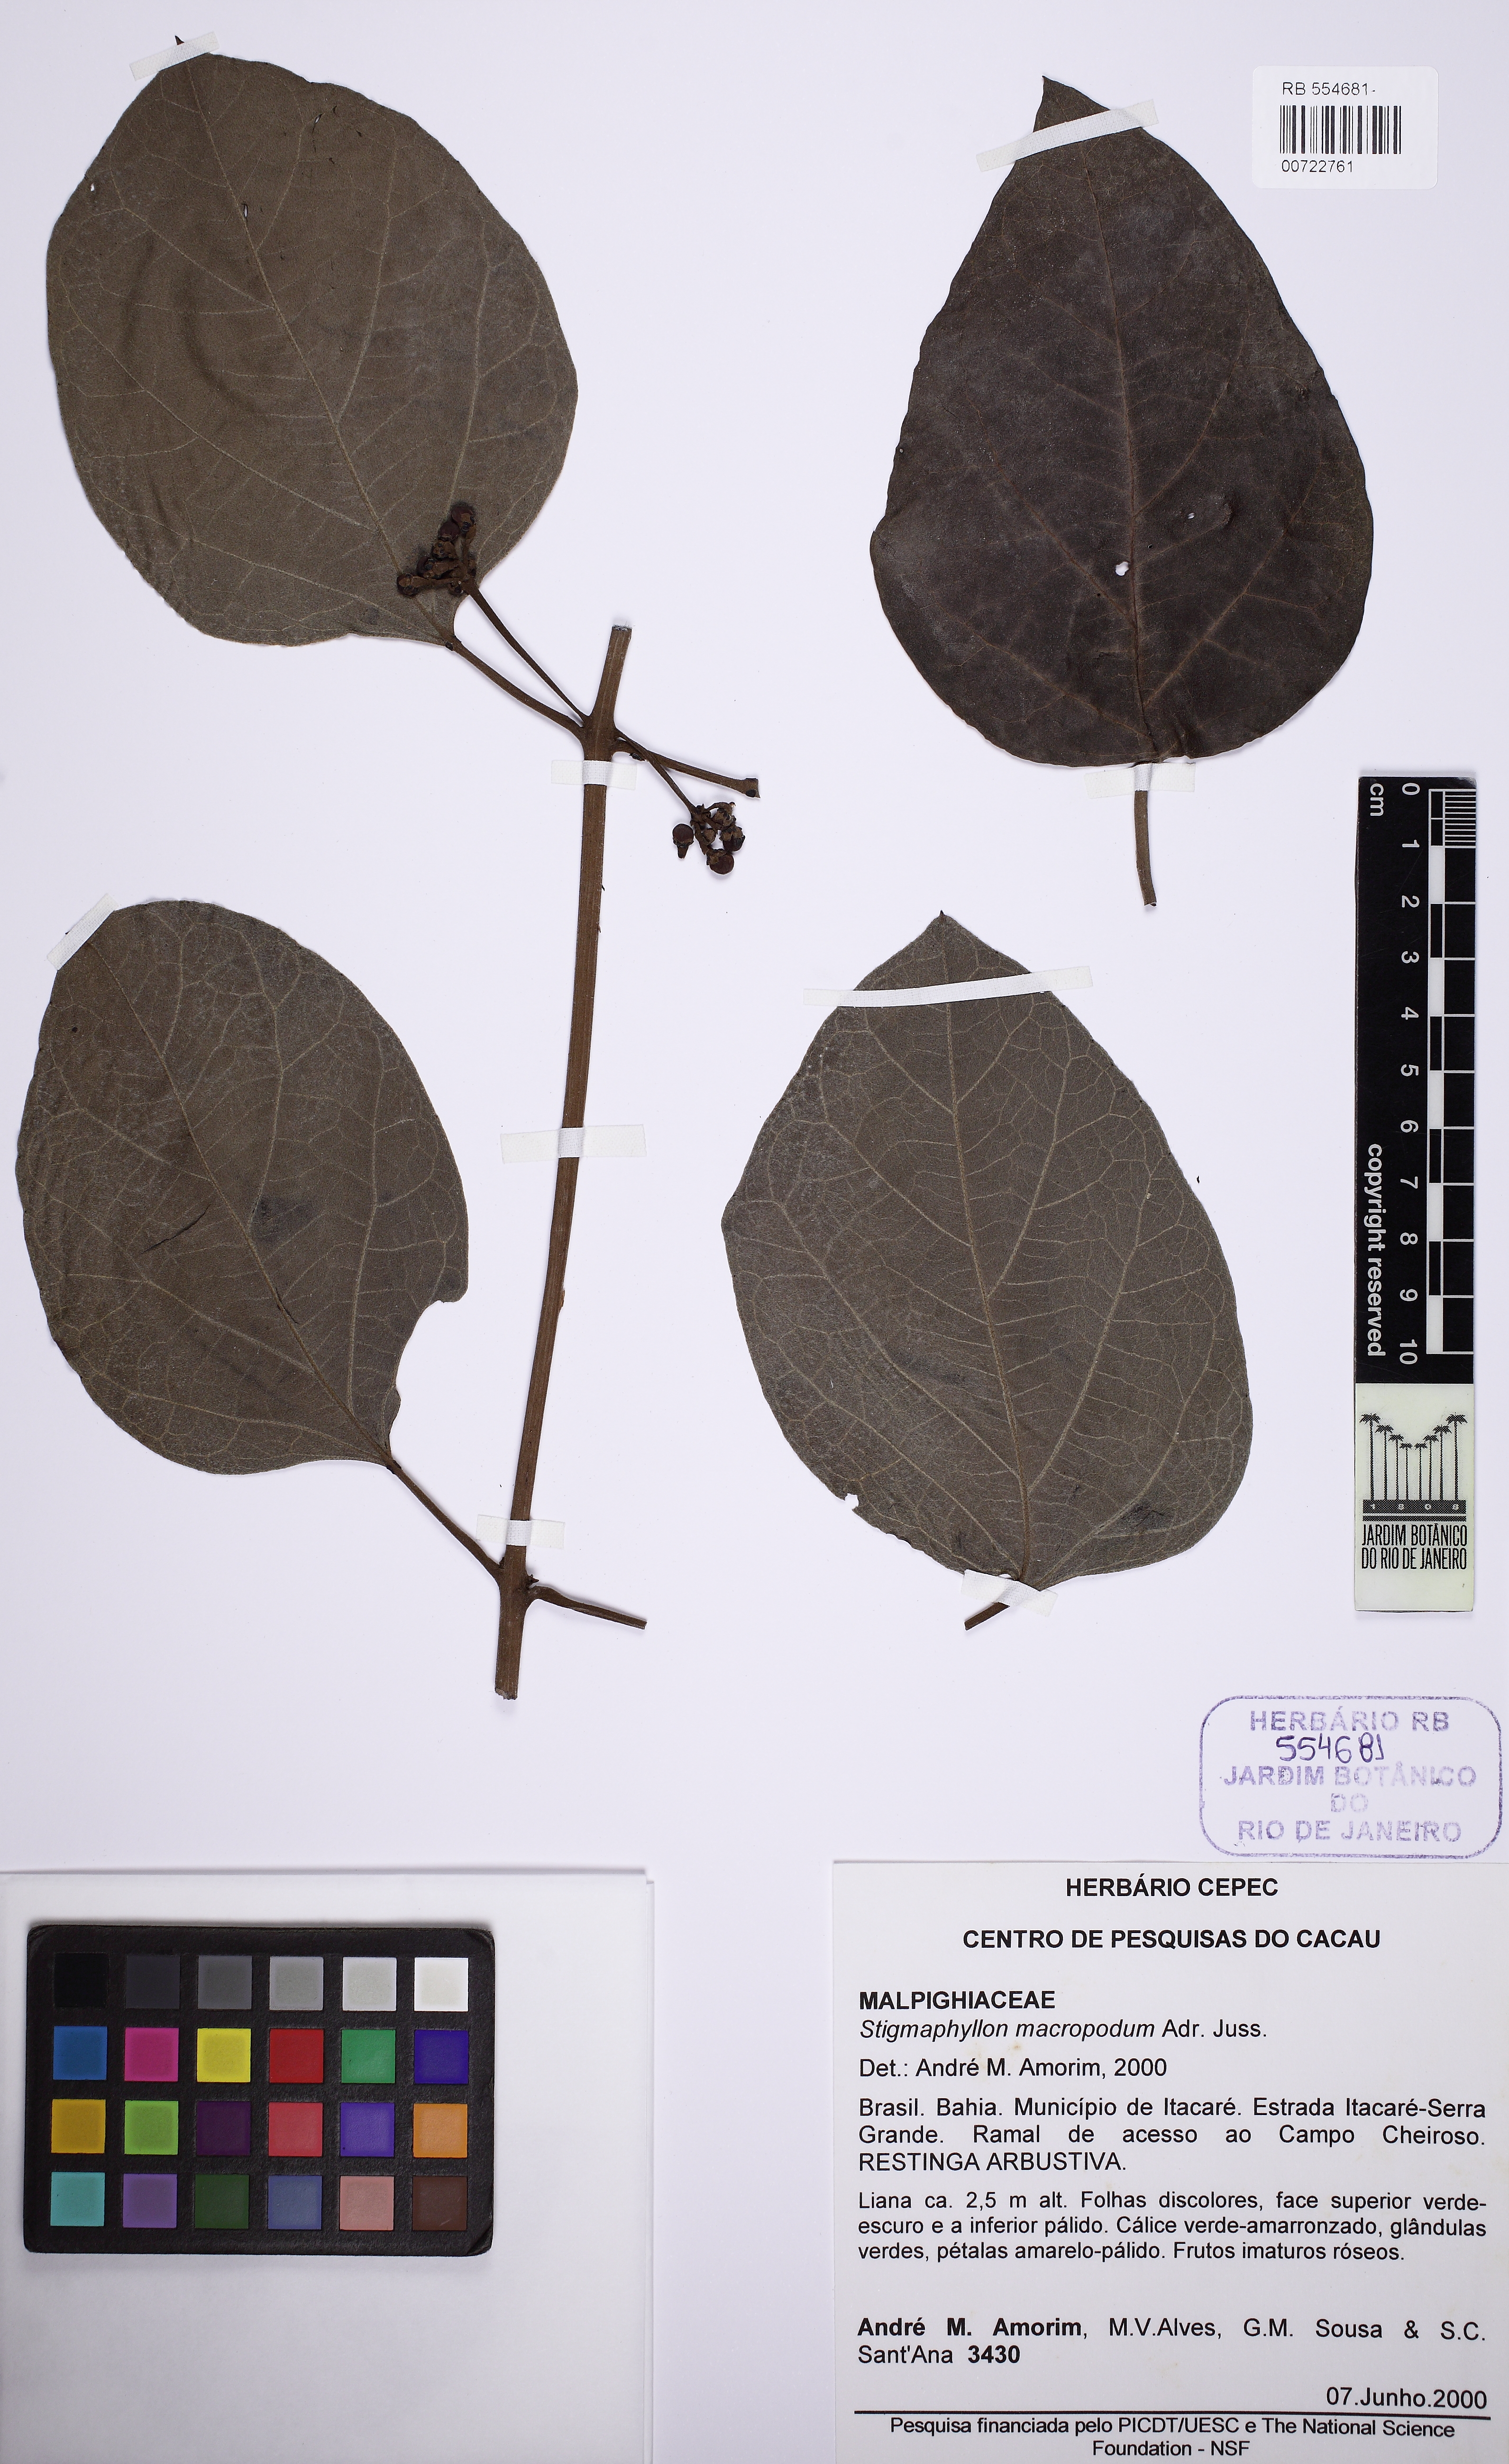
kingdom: Plantae
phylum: Tracheophyta
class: Magnoliopsida
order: Malpighiales
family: Malpighiaceae
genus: Stigmaphyllon
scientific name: Stigmaphyllon macropodum
